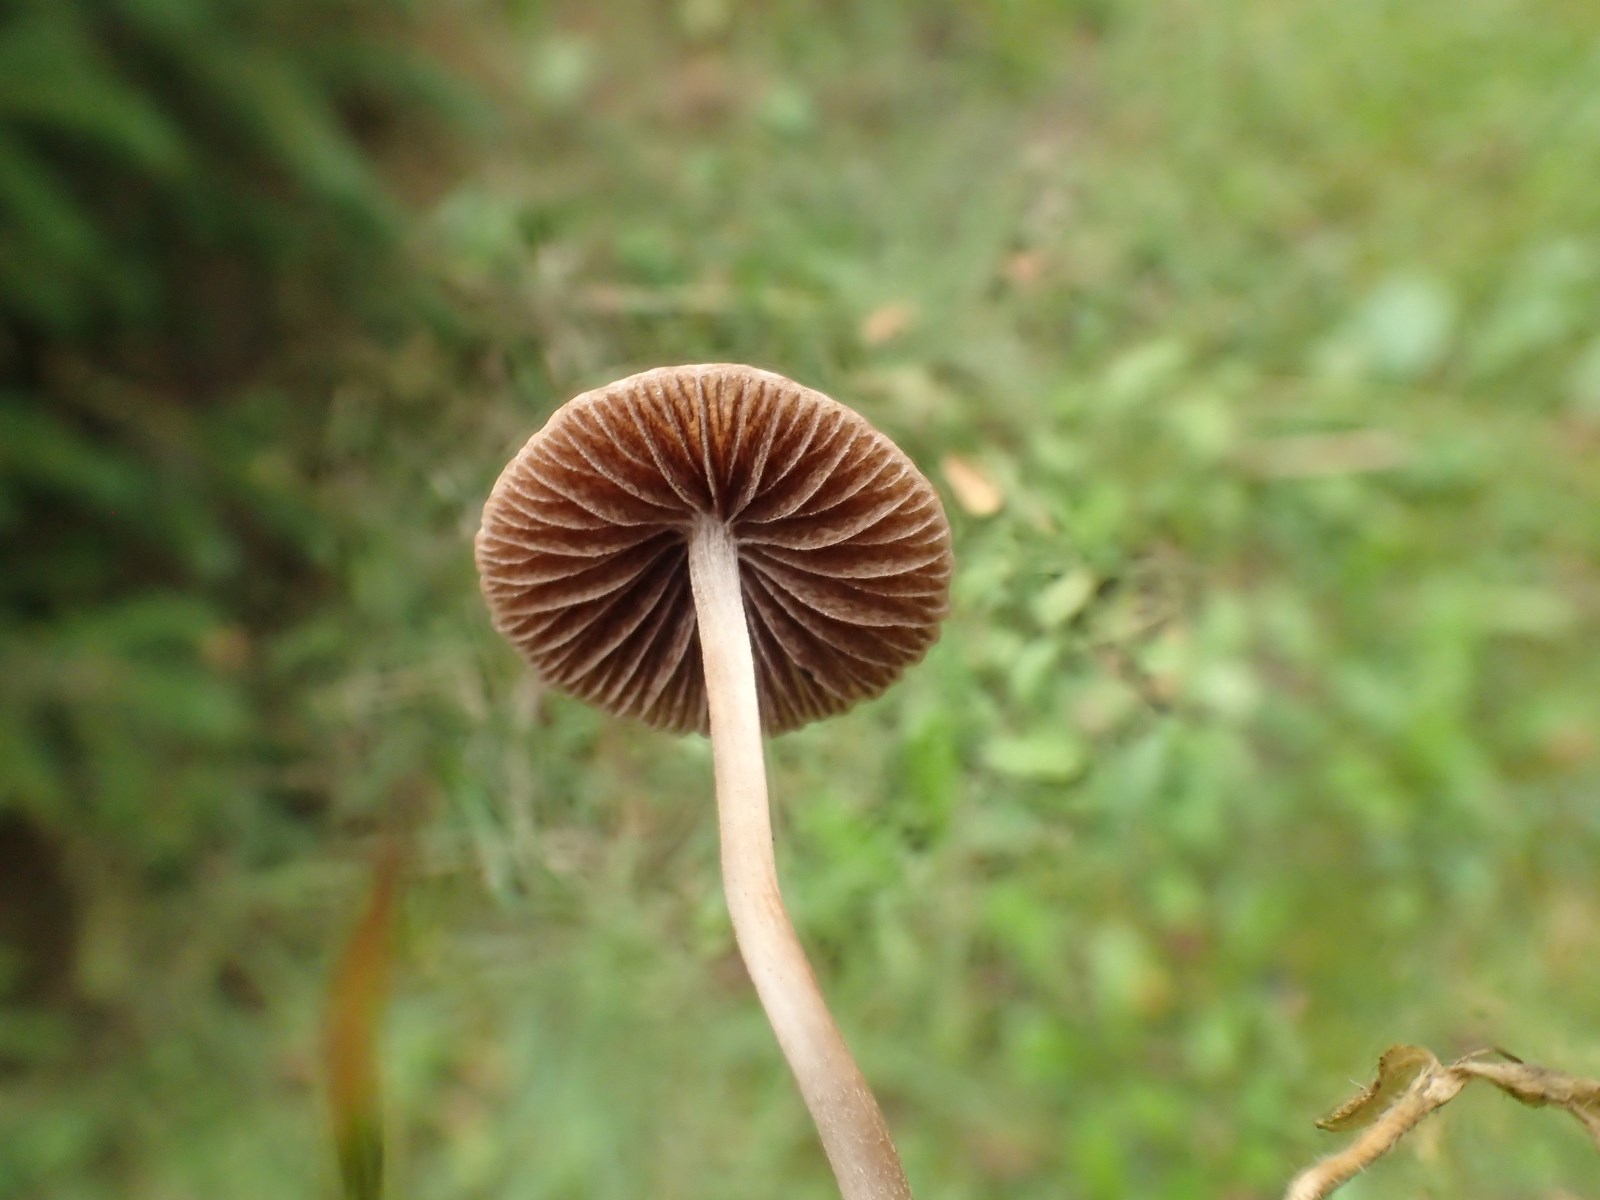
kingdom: Fungi
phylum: Basidiomycota
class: Agaricomycetes
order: Agaricales
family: Bolbitiaceae
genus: Panaeolina
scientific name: Panaeolina foenisecii
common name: høslætsvamp
